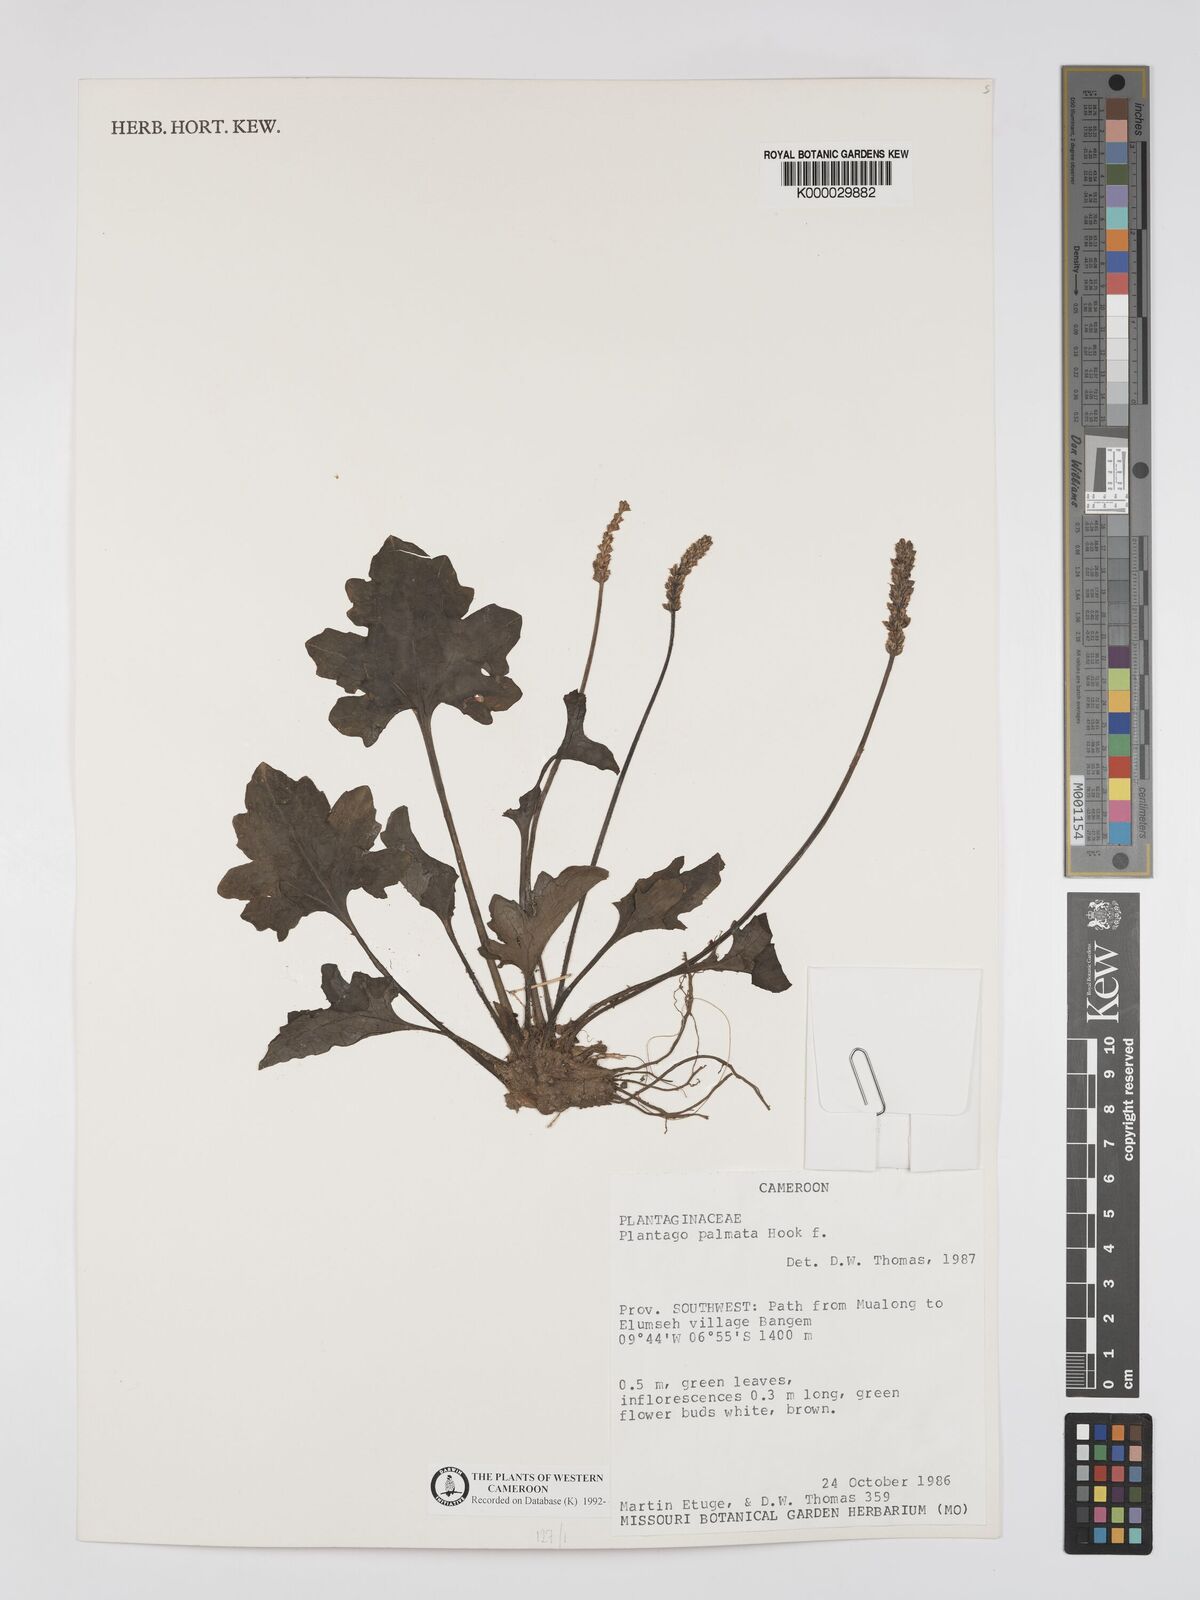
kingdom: Plantae
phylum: Tracheophyta
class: Magnoliopsida
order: Lamiales
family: Plantaginaceae
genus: Plantago
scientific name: Plantago palmata
